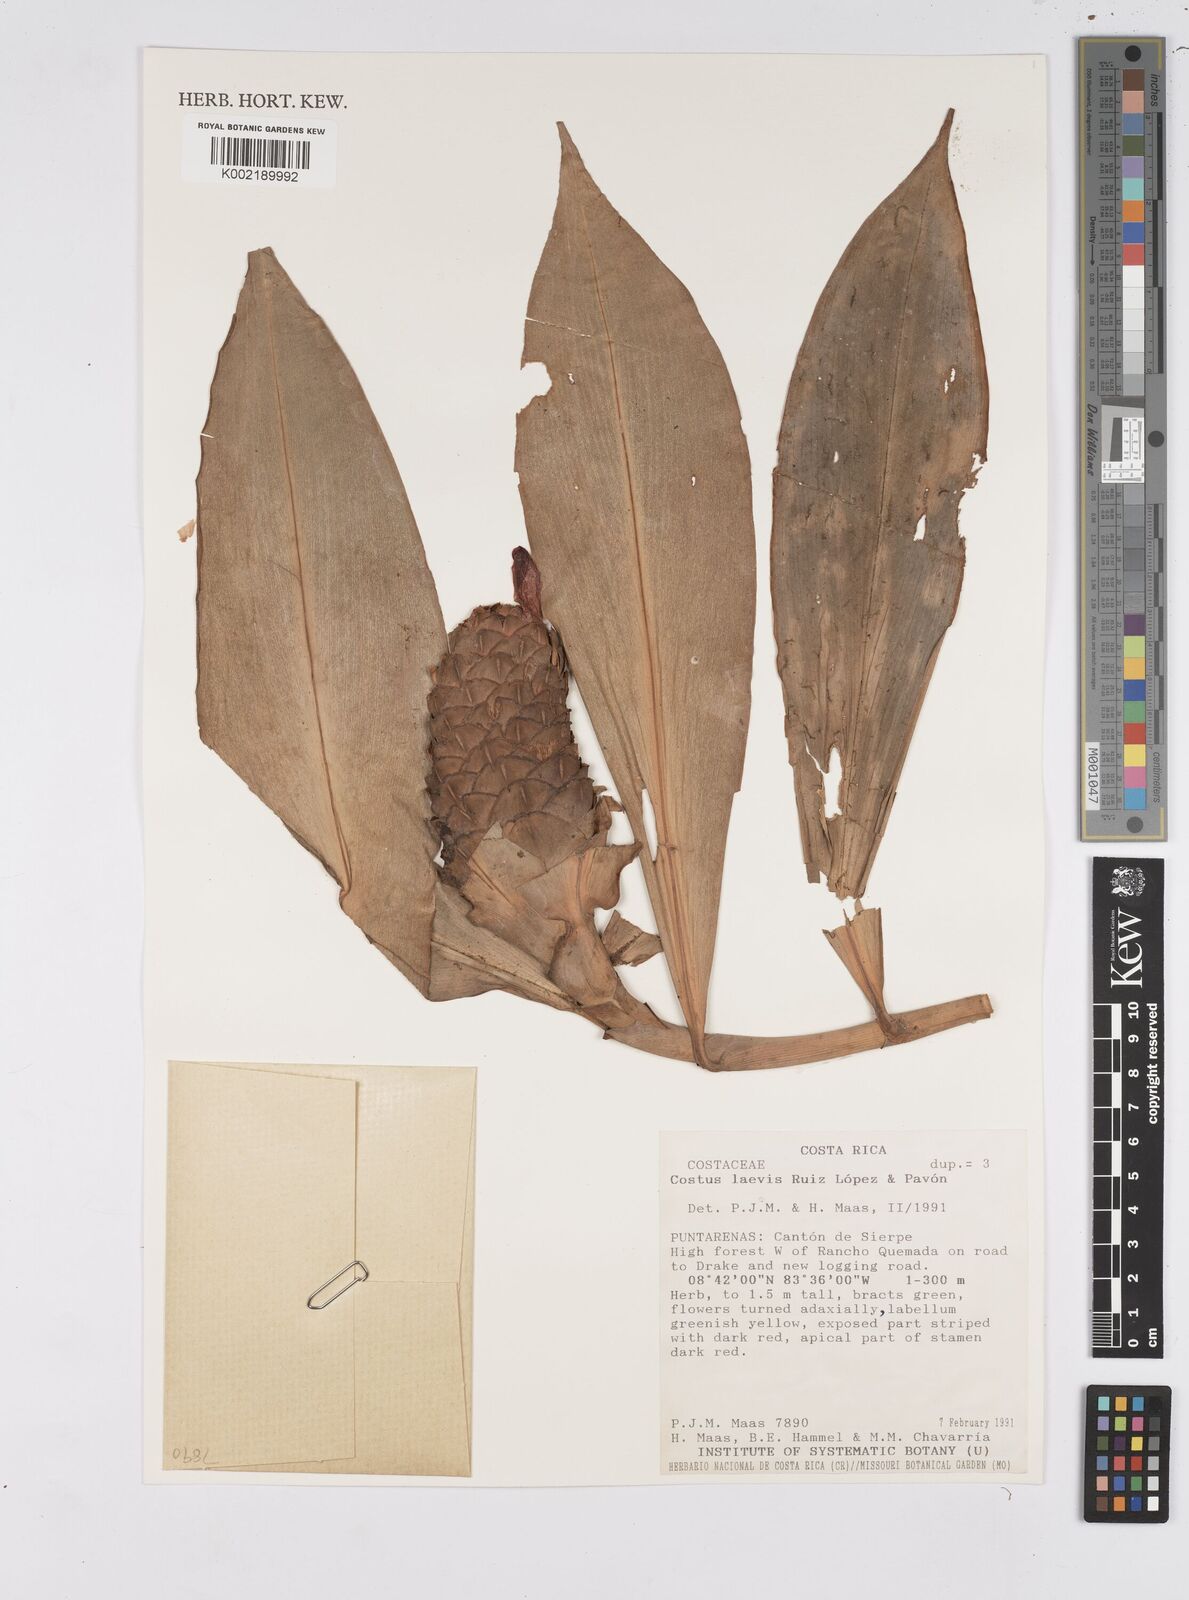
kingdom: Plantae
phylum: Tracheophyta
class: Liliopsida
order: Zingiberales
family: Costaceae
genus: Costus
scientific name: Costus laevis
